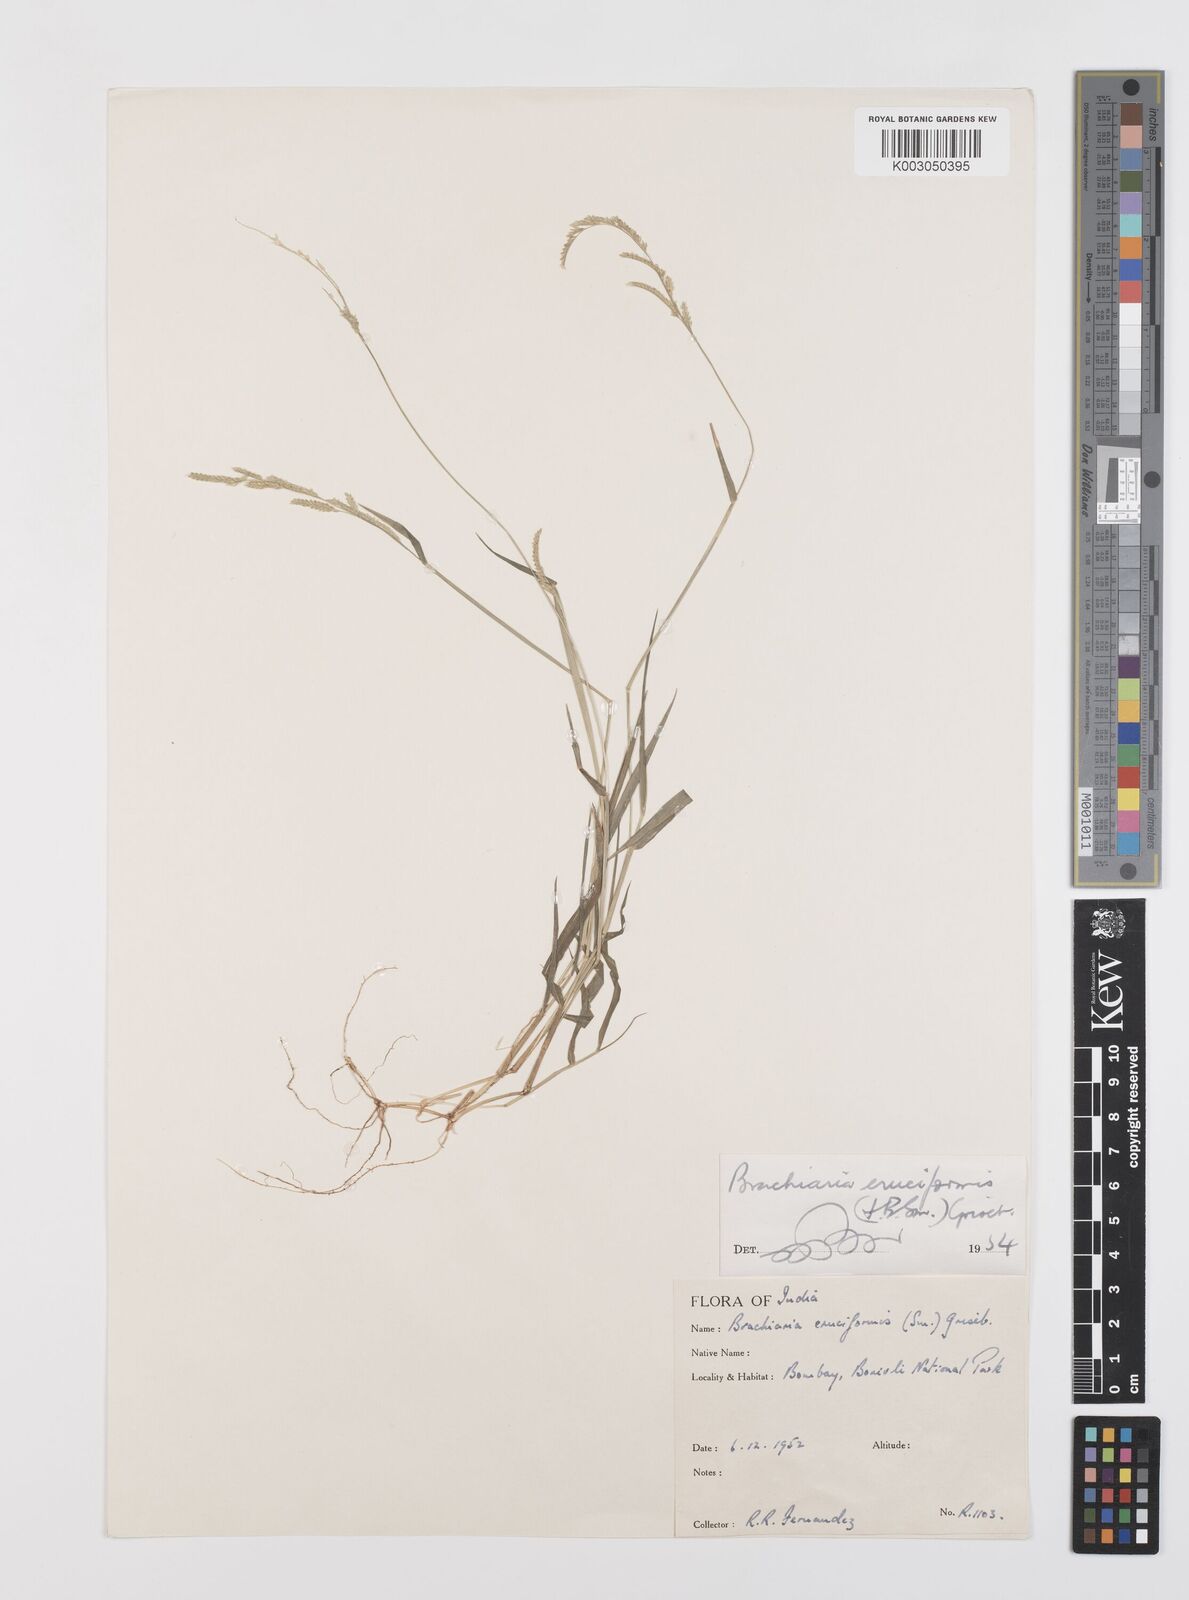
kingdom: Plantae
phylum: Tracheophyta
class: Liliopsida
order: Poales
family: Poaceae
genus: Moorochloa
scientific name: Moorochloa eruciformis
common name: Sweet signalgrass
